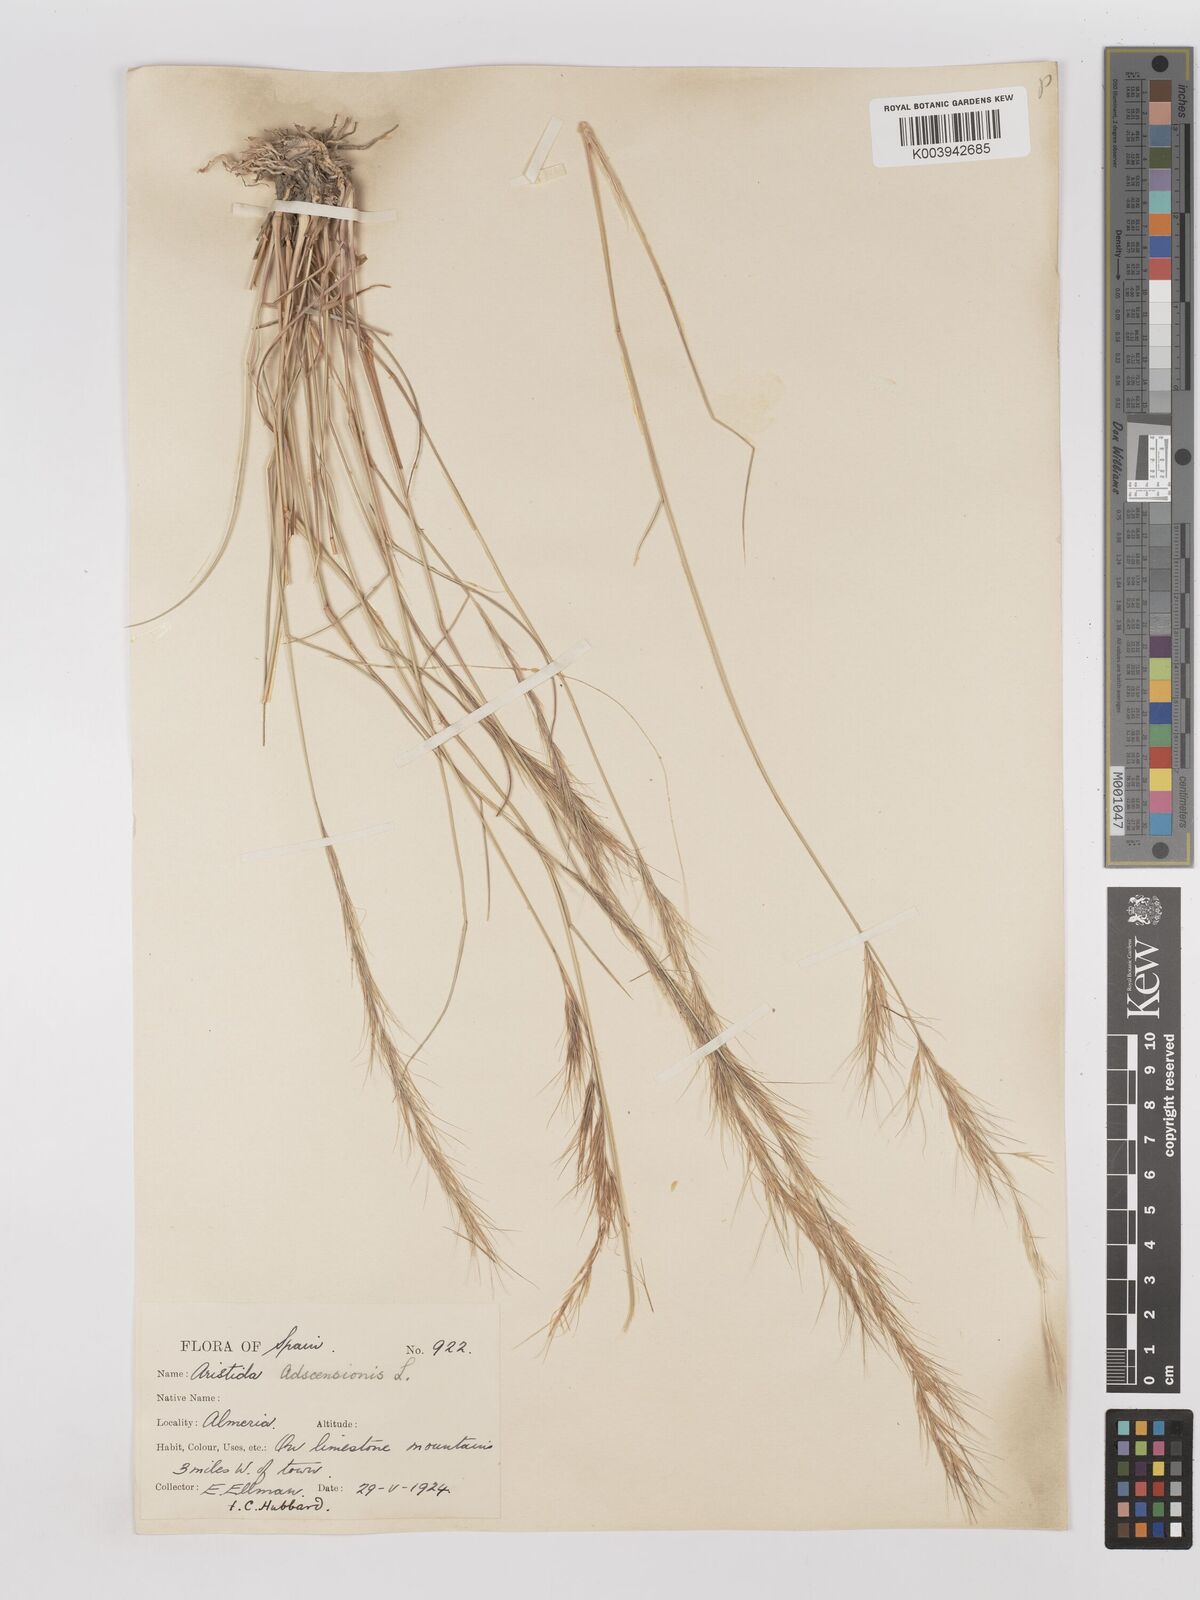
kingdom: Plantae
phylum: Tracheophyta
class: Liliopsida
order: Poales
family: Poaceae
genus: Aristida
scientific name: Aristida adscensionis
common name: Sixweeks threeawn
